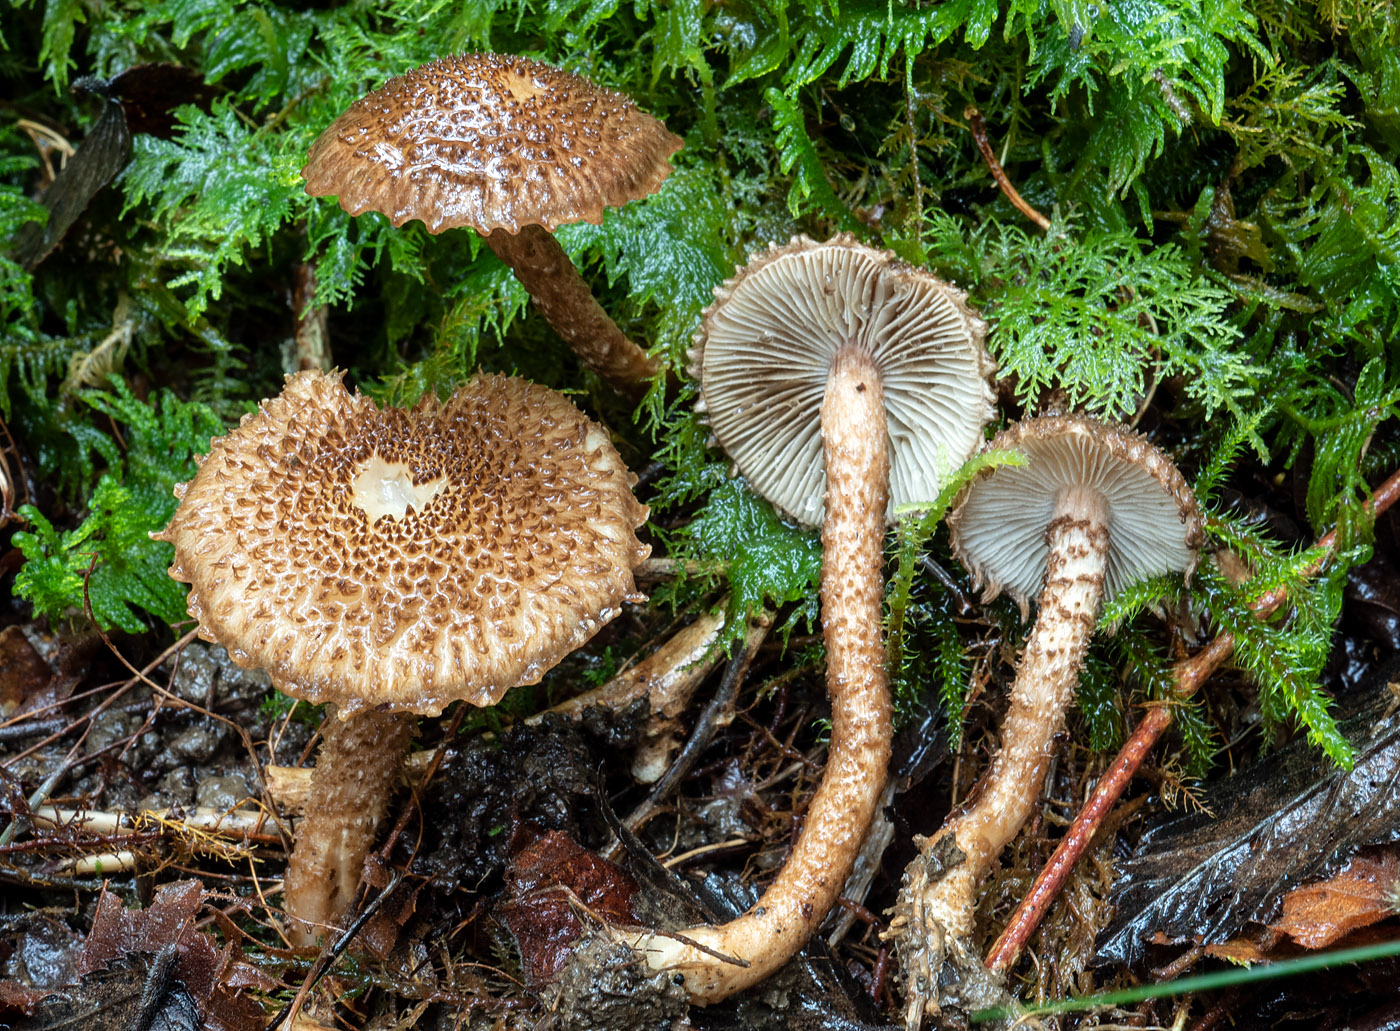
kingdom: Fungi
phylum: Basidiomycota
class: Agaricomycetes
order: Agaricales
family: Inocybaceae
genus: Inocybe
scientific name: Inocybe hystrix
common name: krumskællet trævlhat
